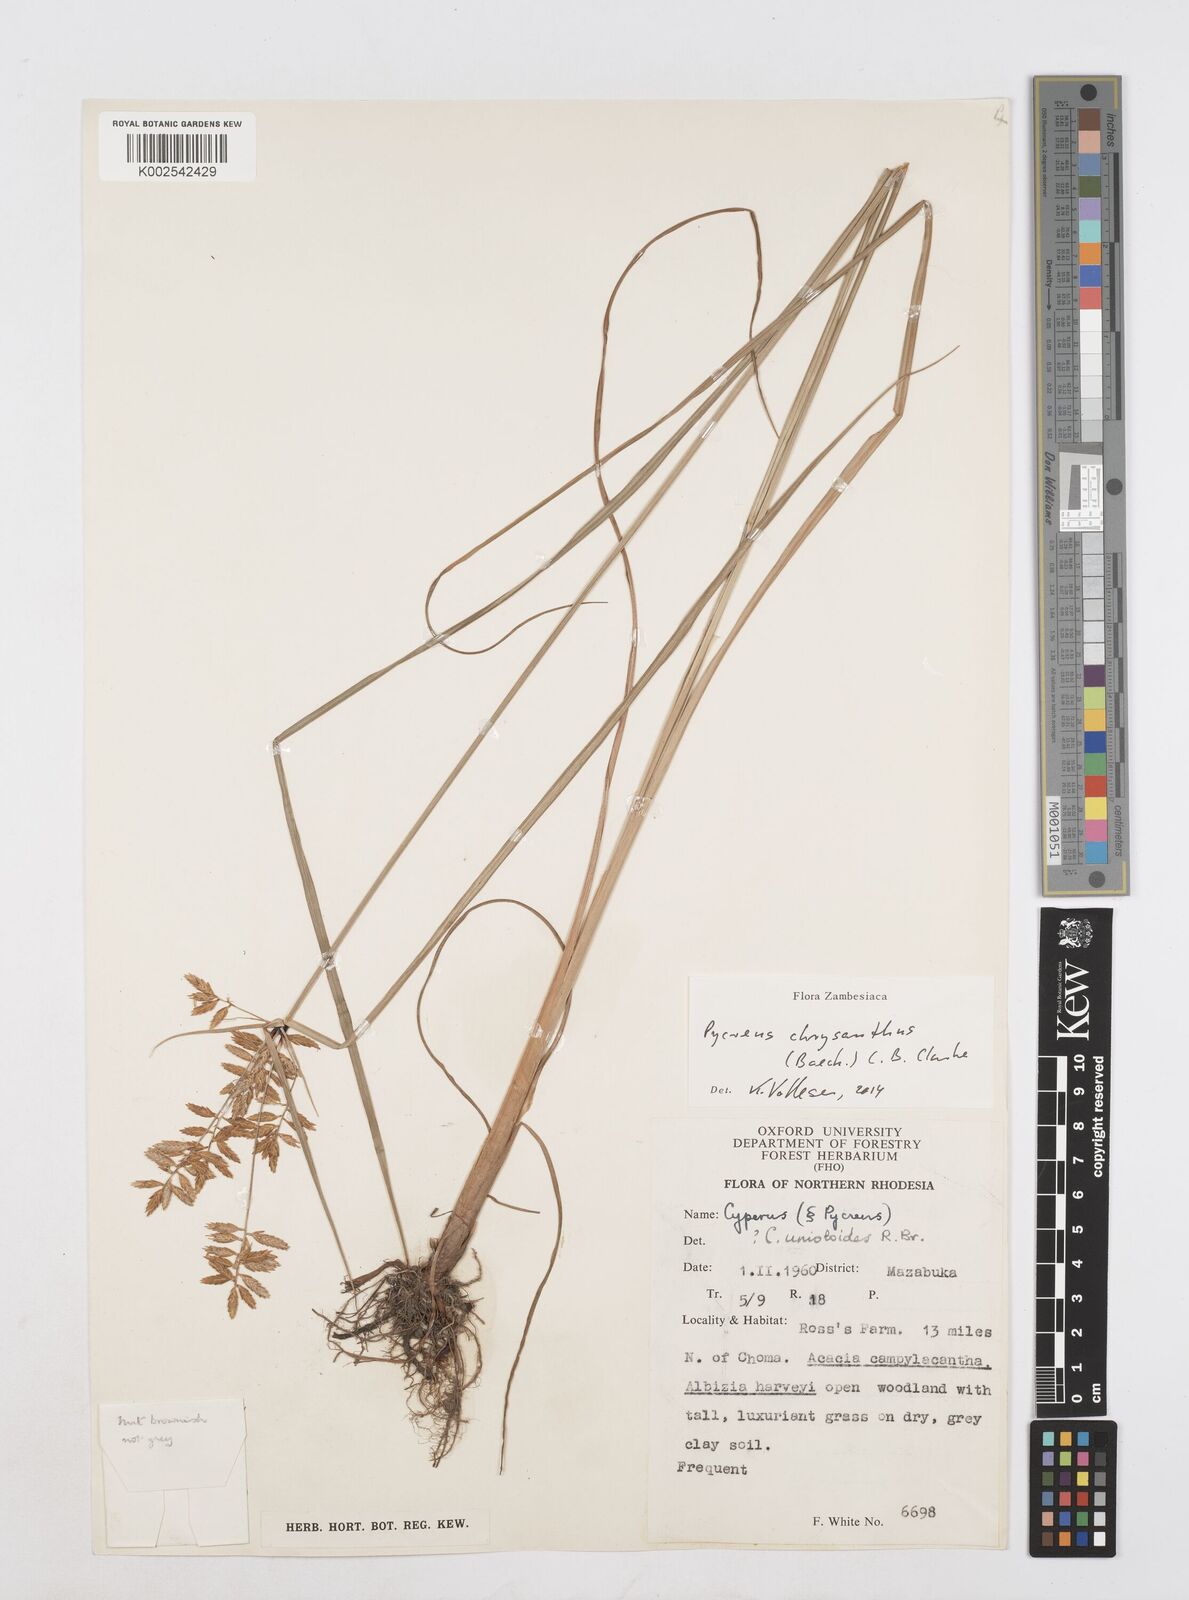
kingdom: Plantae
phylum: Tracheophyta
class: Liliopsida
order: Poales
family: Cyperaceae
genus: Cyperus
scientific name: Cyperus chrysanthus
